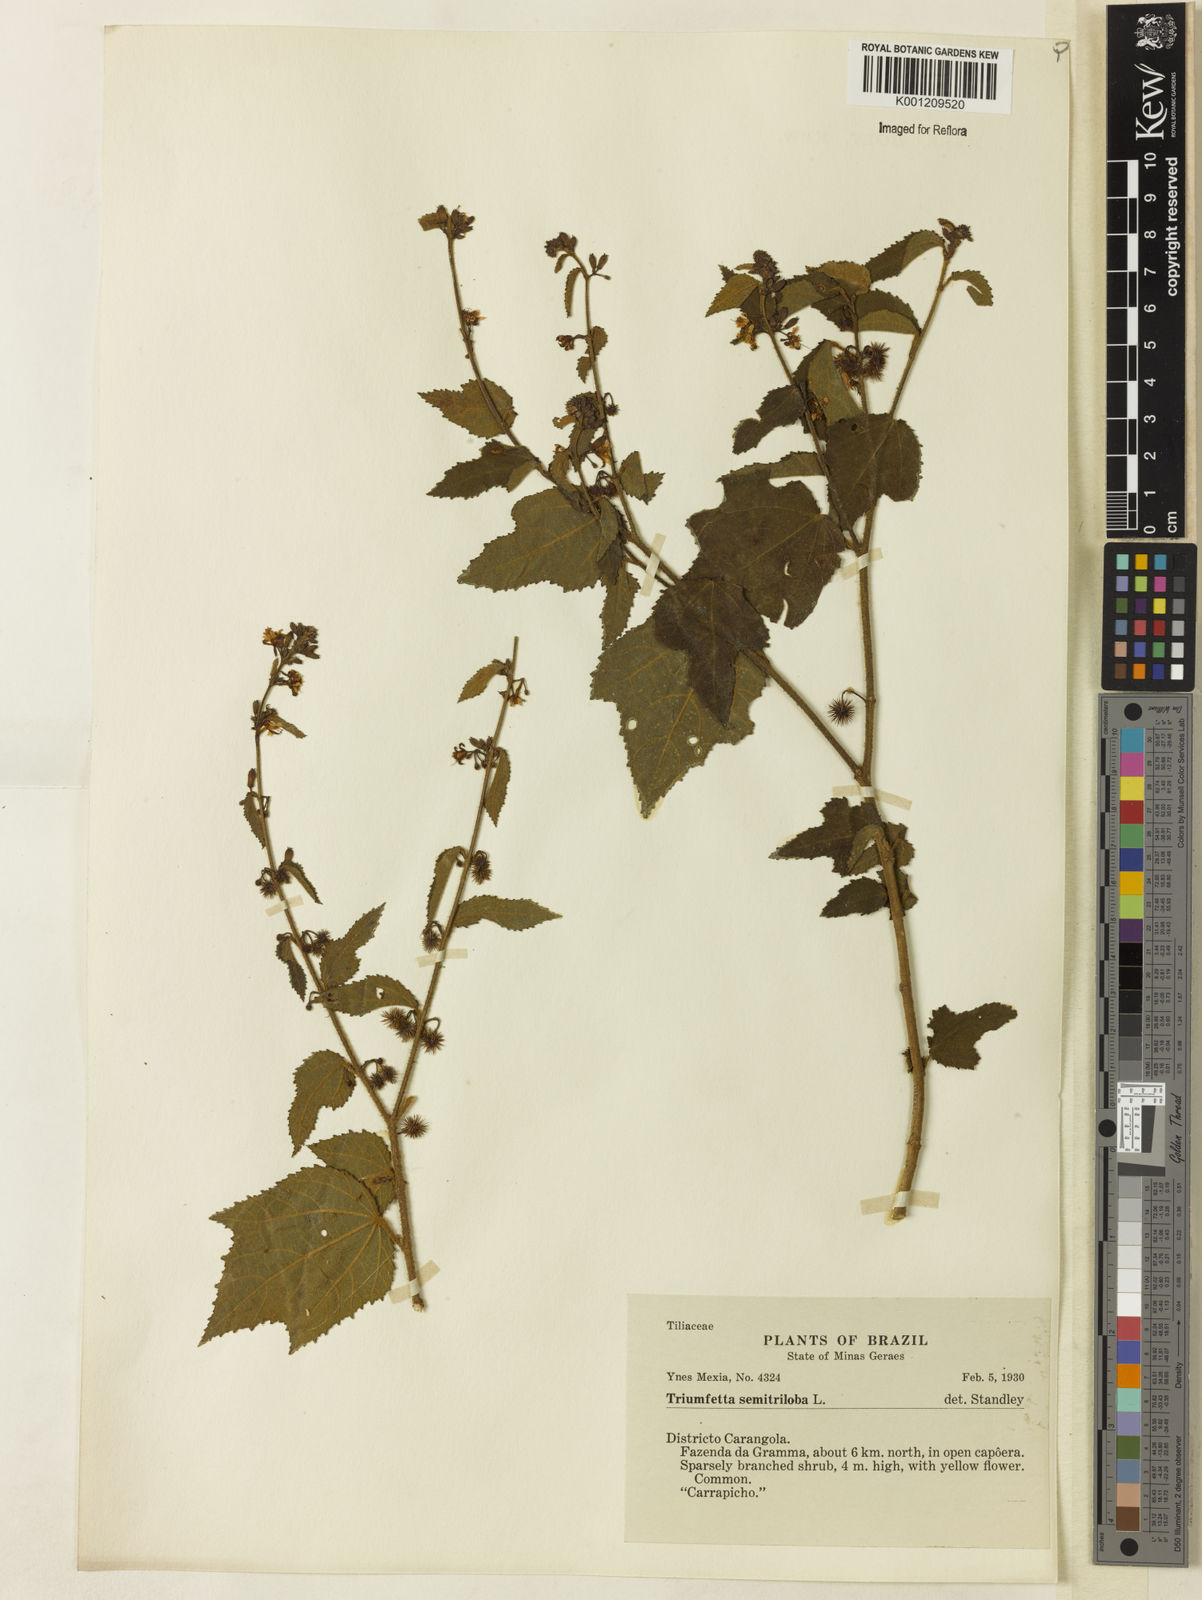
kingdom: Plantae
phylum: Tracheophyta
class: Magnoliopsida
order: Malvales
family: Malvaceae
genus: Triumfetta
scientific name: Triumfetta semitriloba
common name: Sacramento burbark
